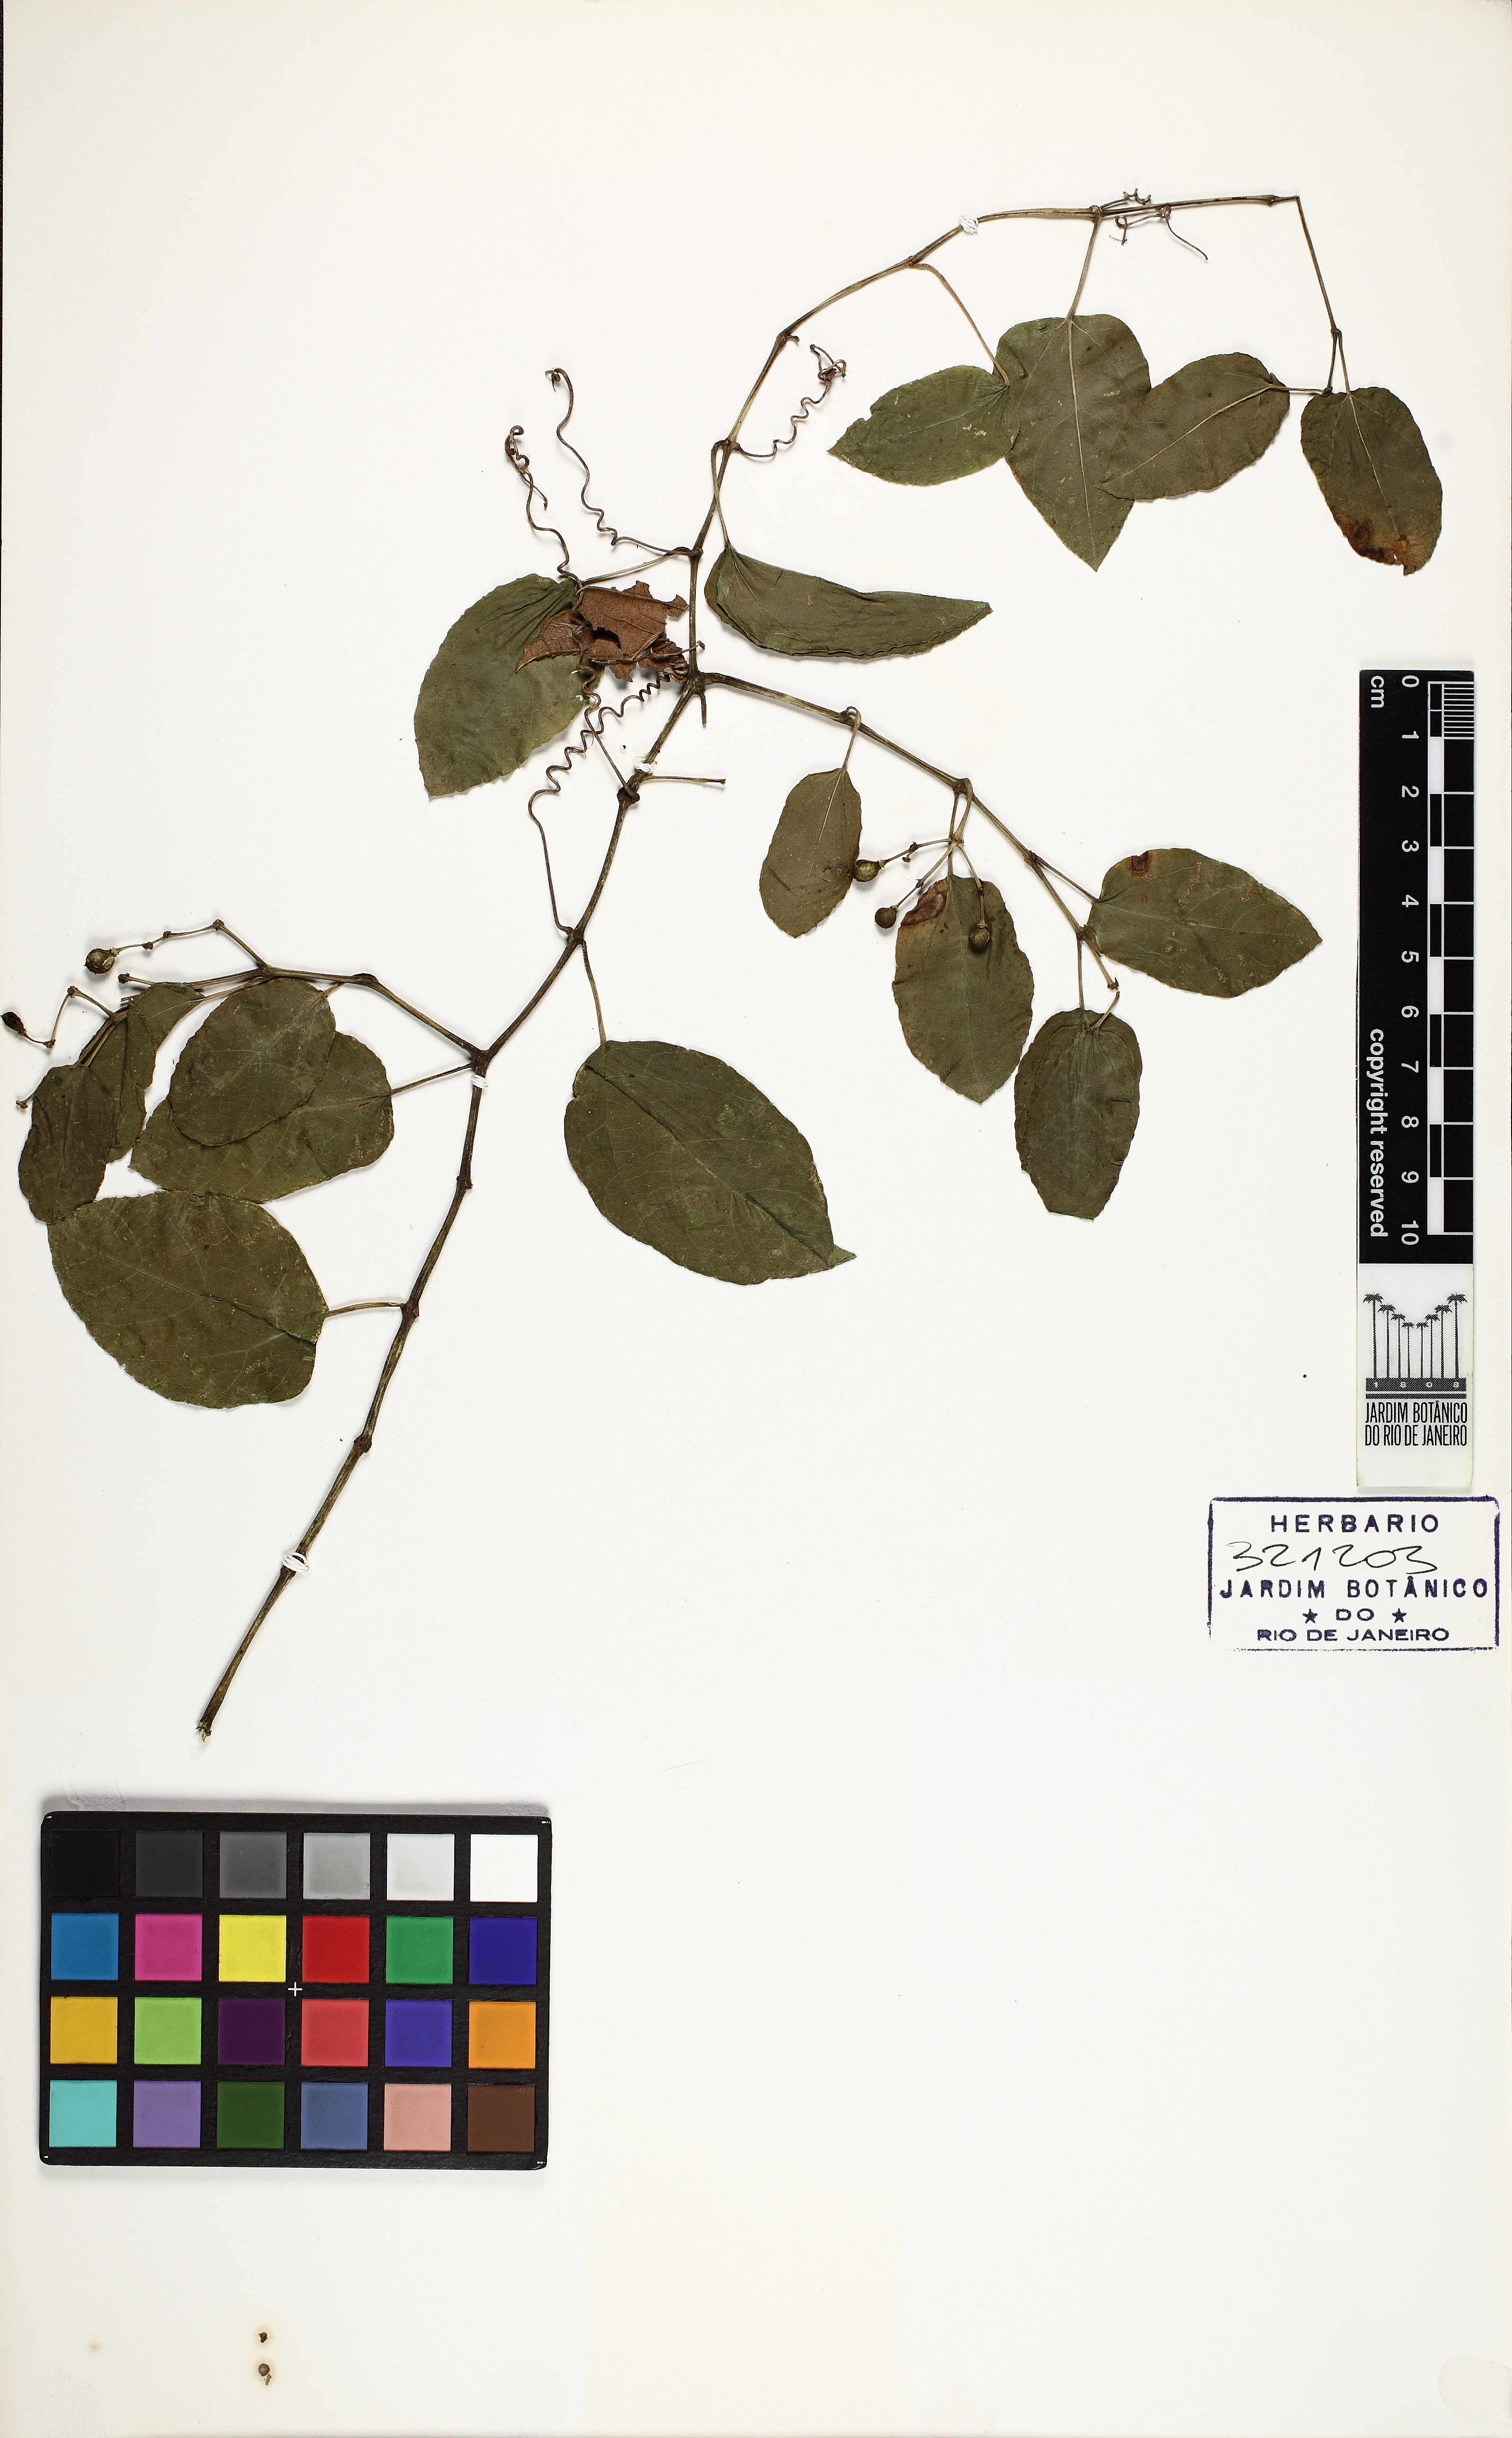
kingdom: Plantae
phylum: Tracheophyta
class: Magnoliopsida
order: Vitales
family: Vitaceae
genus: Cissus
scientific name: Cissus verticillata
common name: Princess vine
